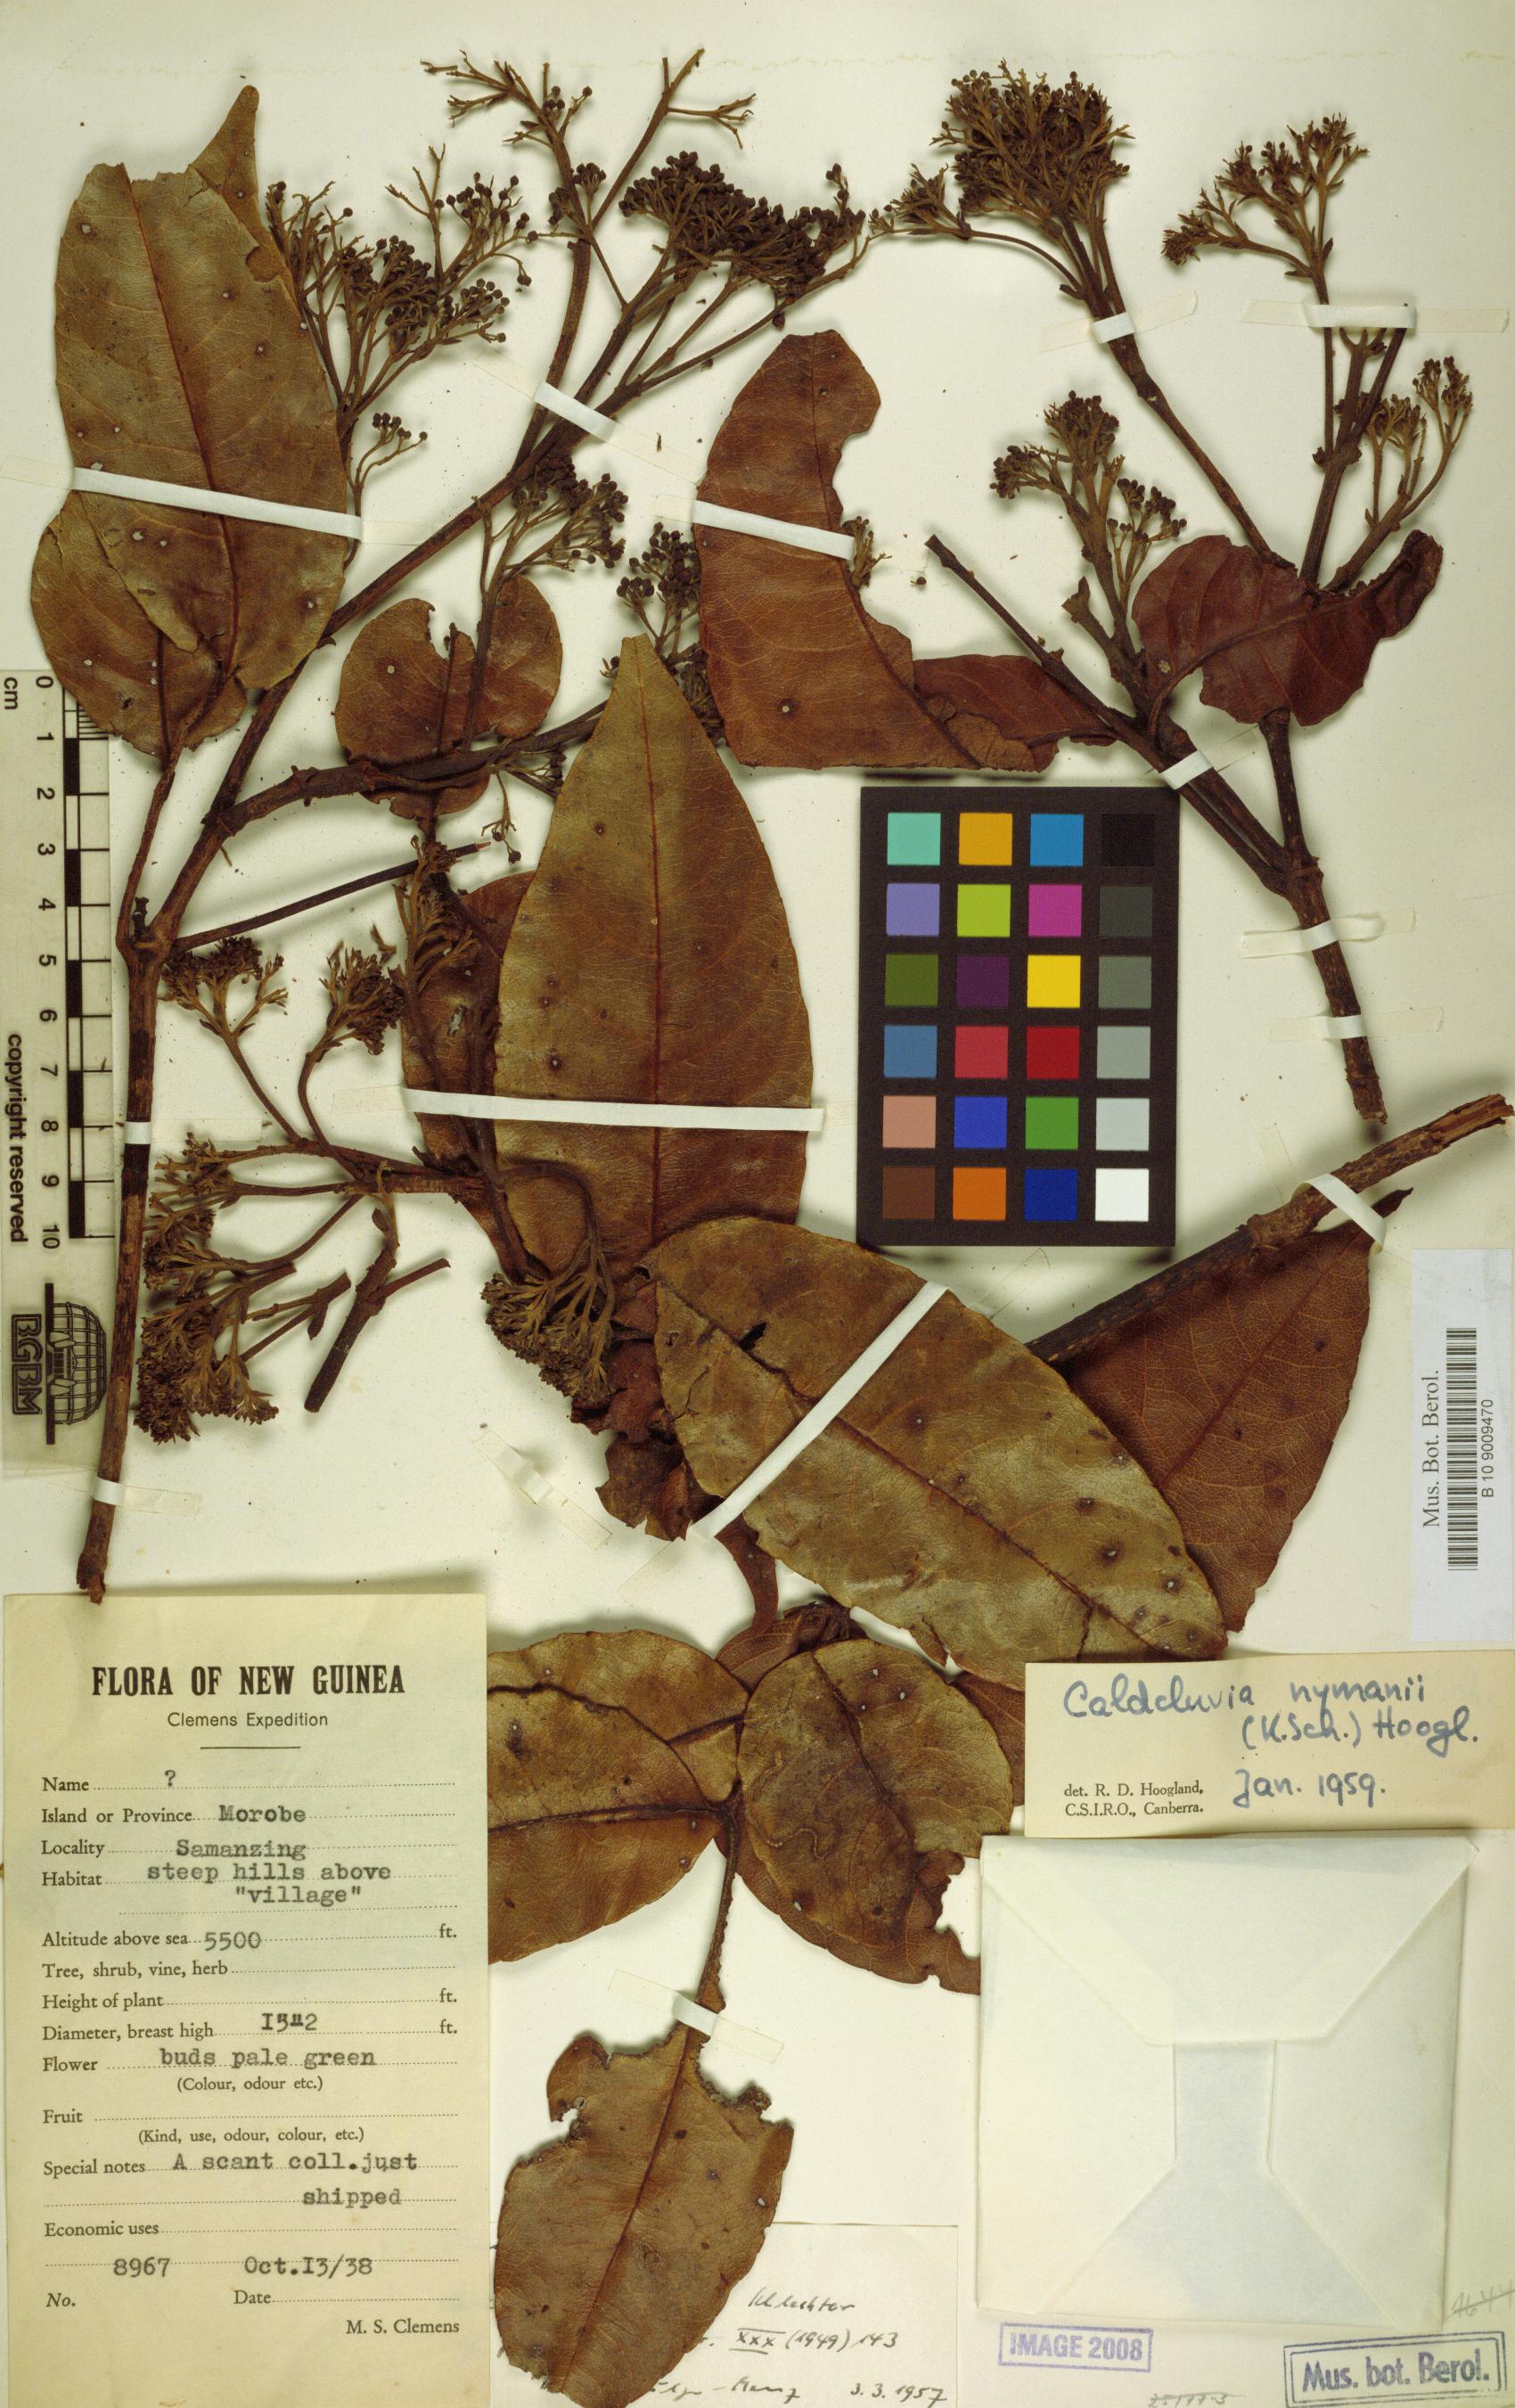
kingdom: Plantae
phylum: Tracheophyta
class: Magnoliopsida
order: Oxalidales
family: Cunoniaceae
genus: Opocunonia
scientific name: Opocunonia nymanii
